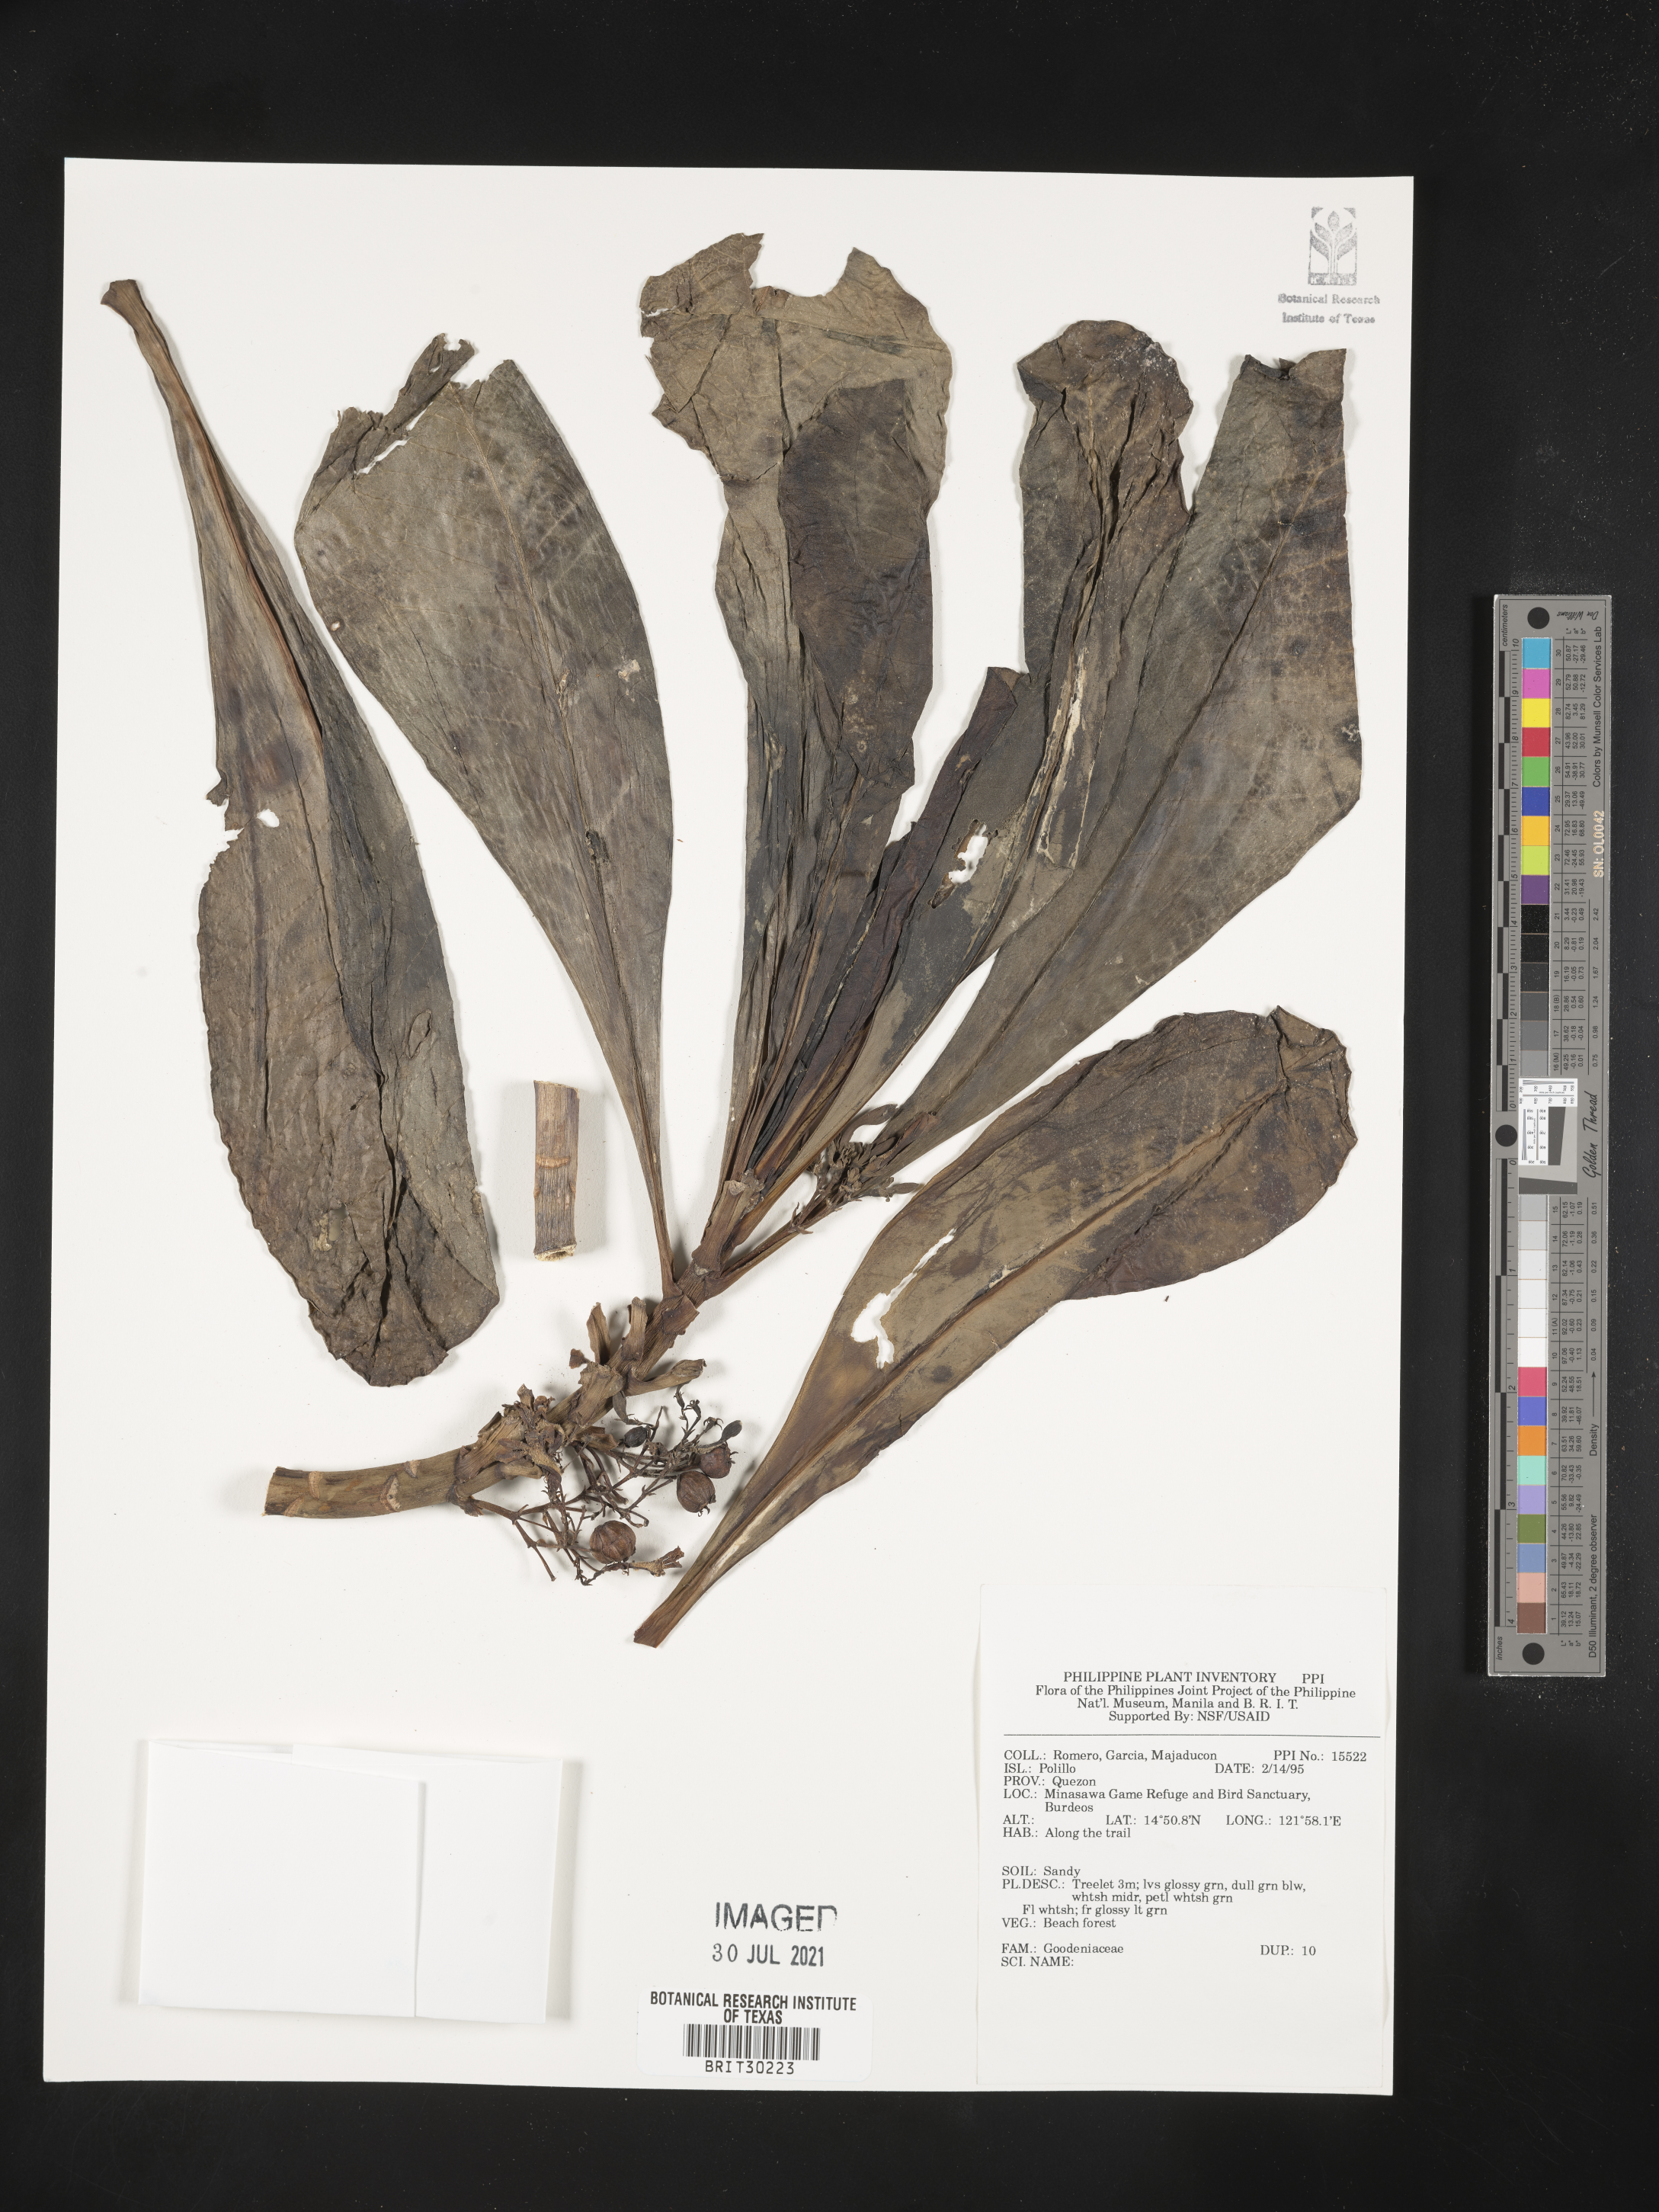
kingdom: Plantae
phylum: Tracheophyta
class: Magnoliopsida
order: Asterales
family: Goodeniaceae
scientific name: Goodeniaceae
